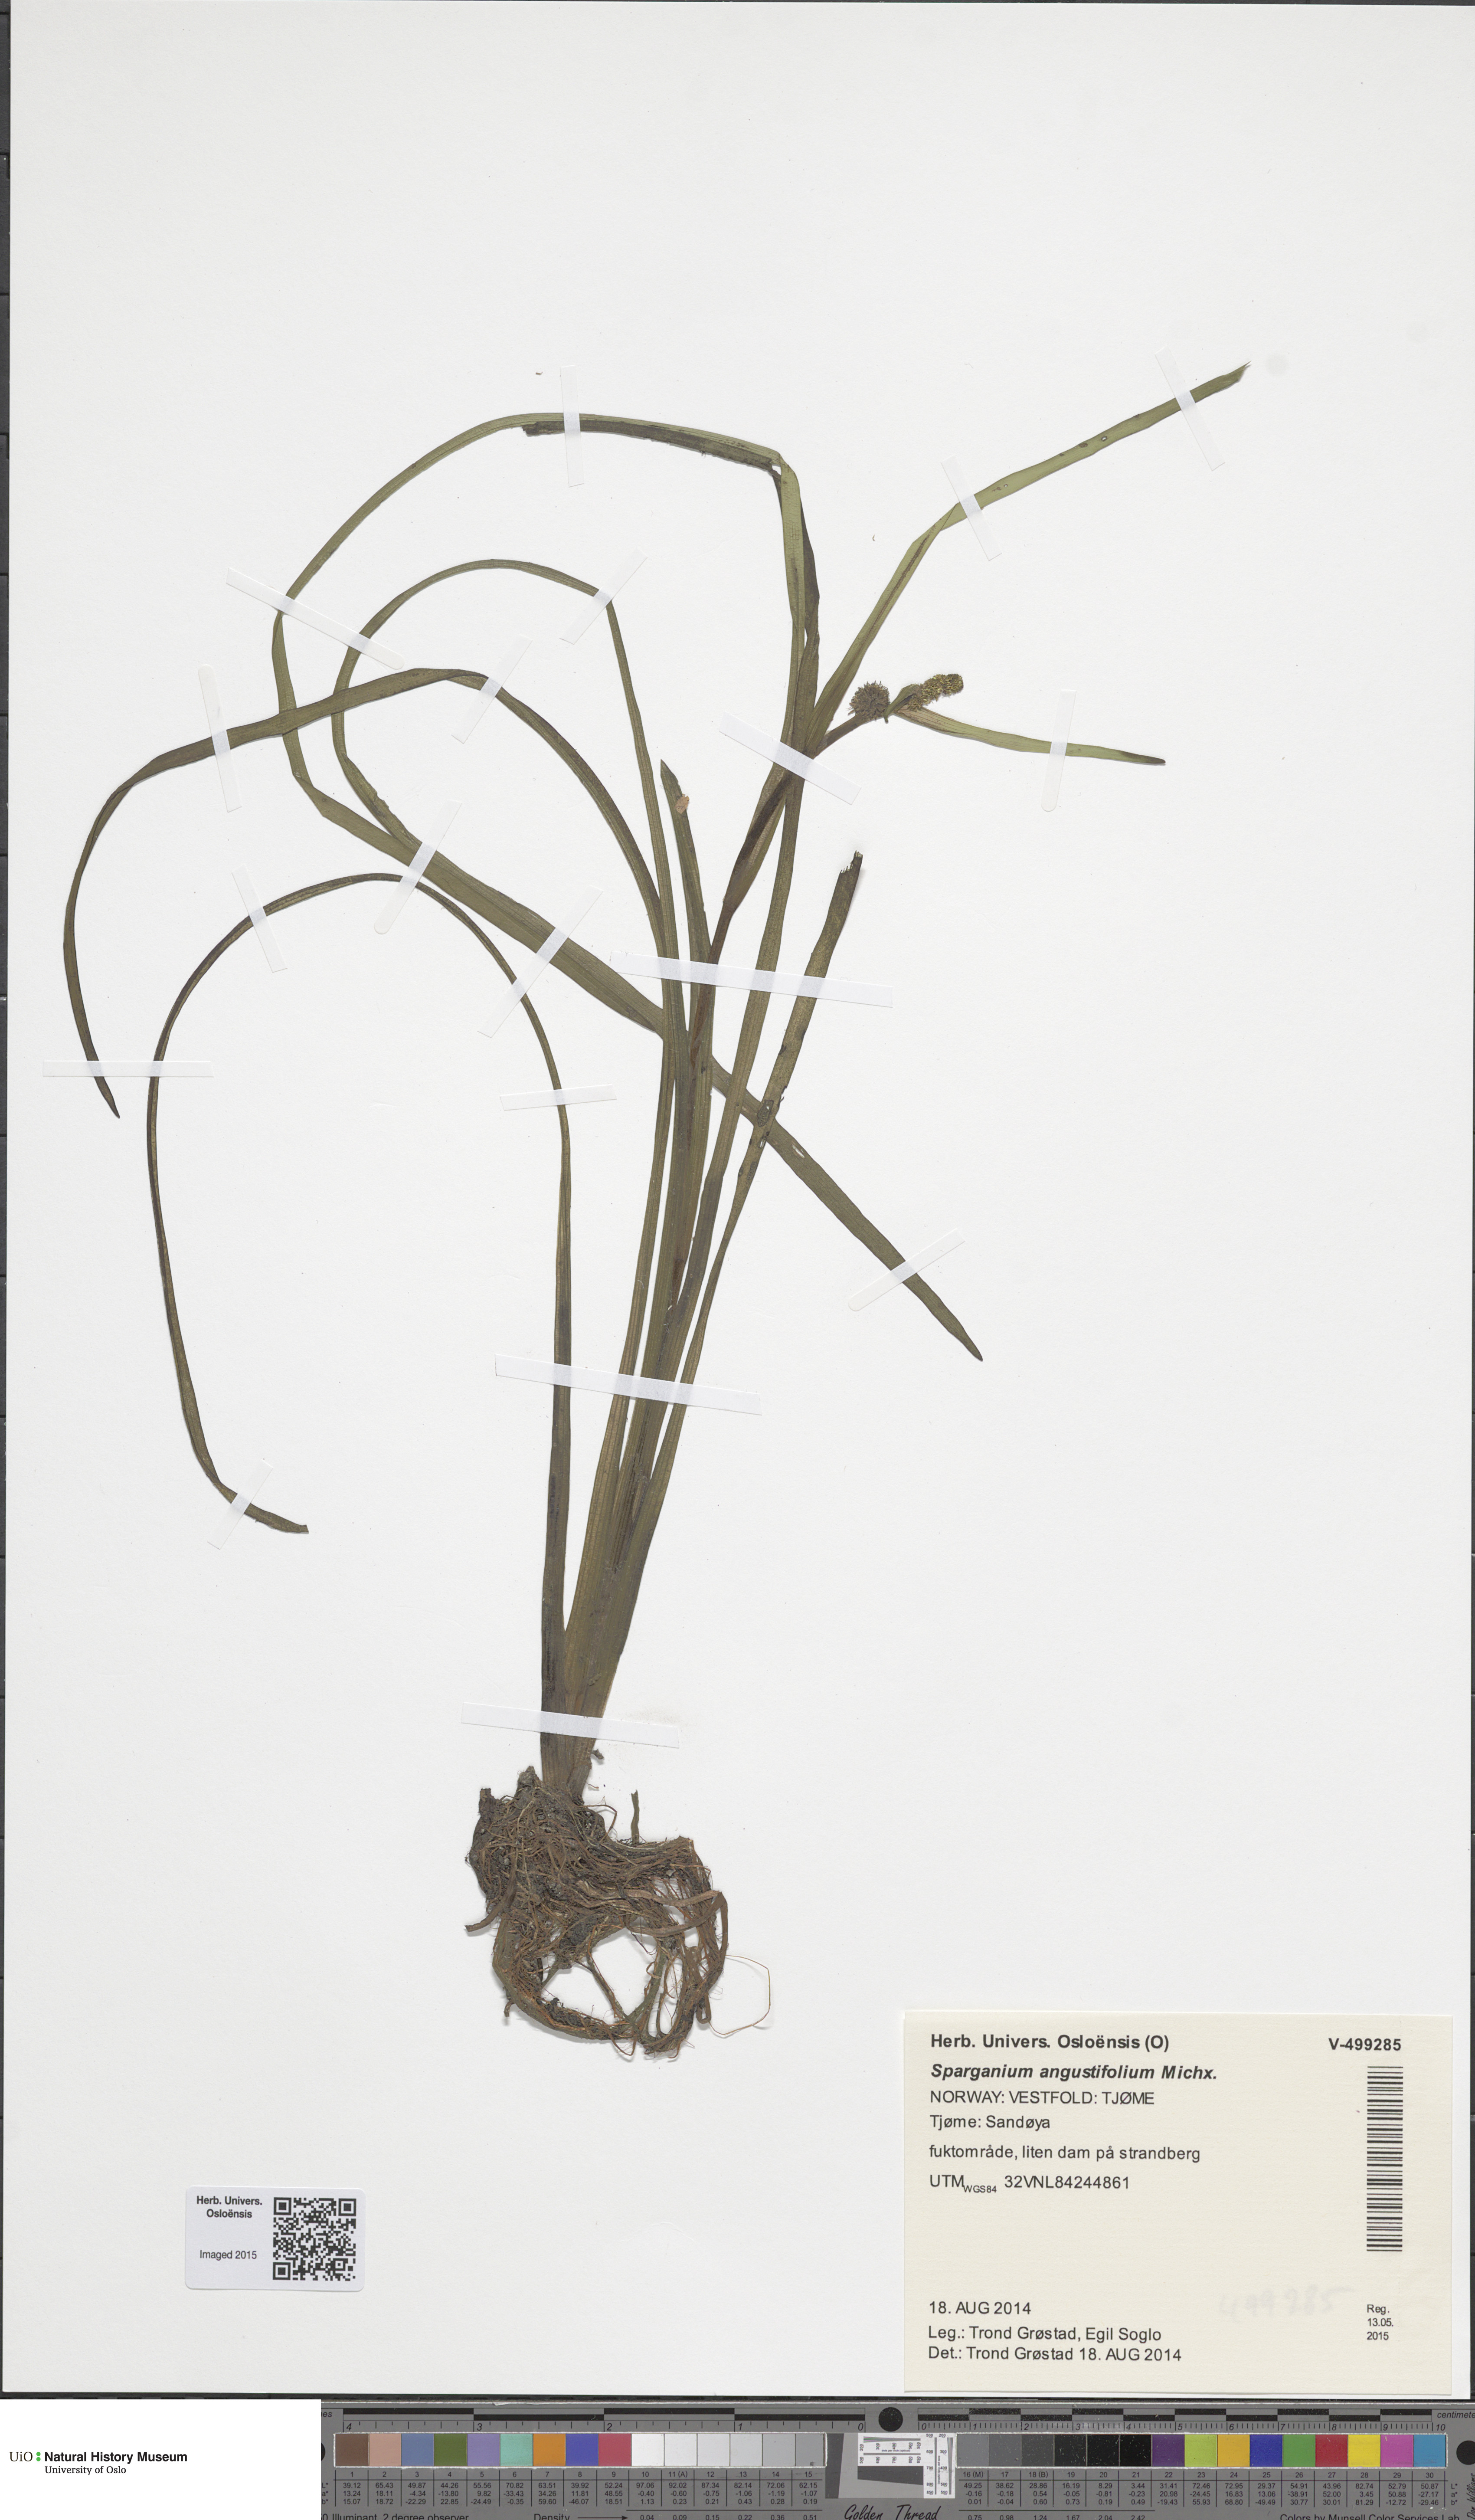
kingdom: Plantae
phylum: Tracheophyta
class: Liliopsida
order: Poales
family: Typhaceae
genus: Sparganium
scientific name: Sparganium angustifolium
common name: Floating bur-reed
